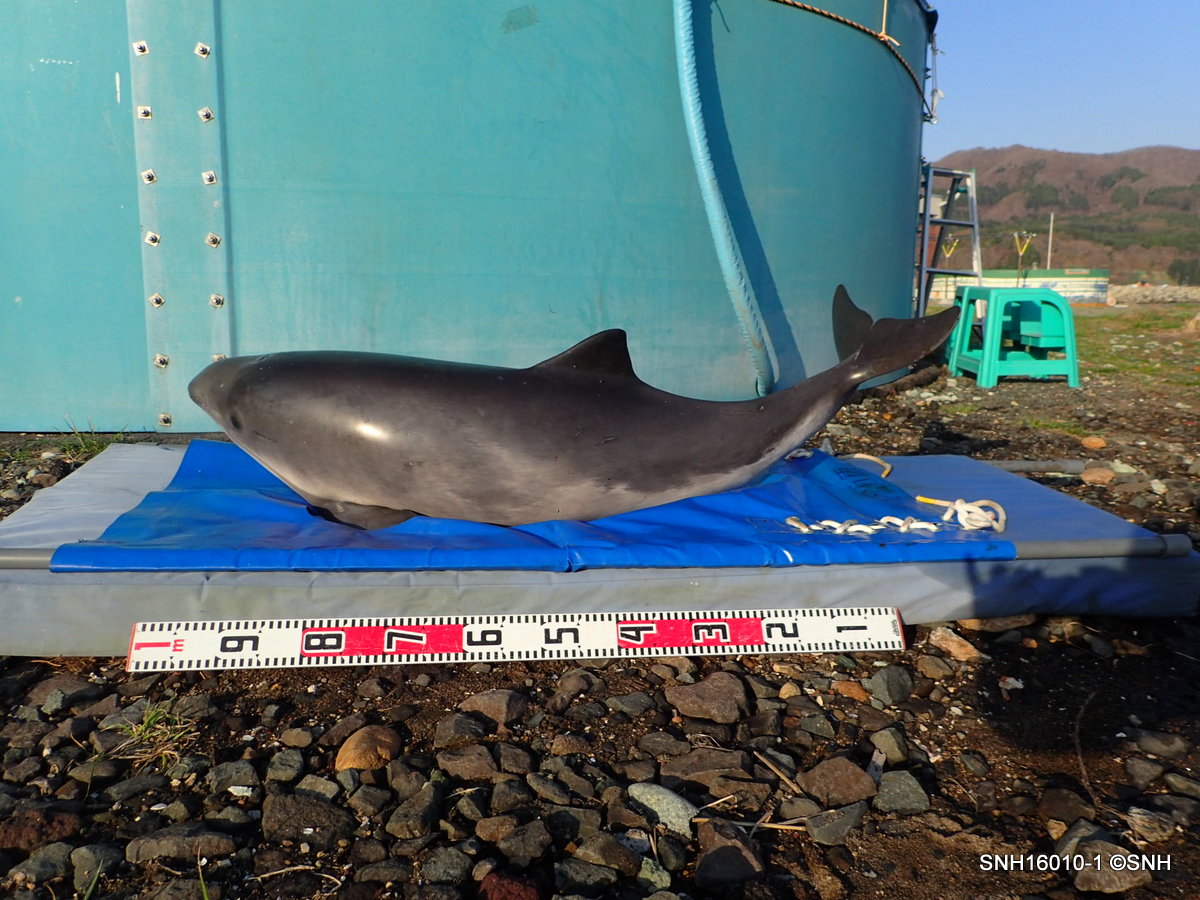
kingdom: Animalia
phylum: Chordata
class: Mammalia
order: Cetacea
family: Phocoenidae
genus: Phocoena
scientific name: Phocoena phocoena
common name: Harbour porpoise
